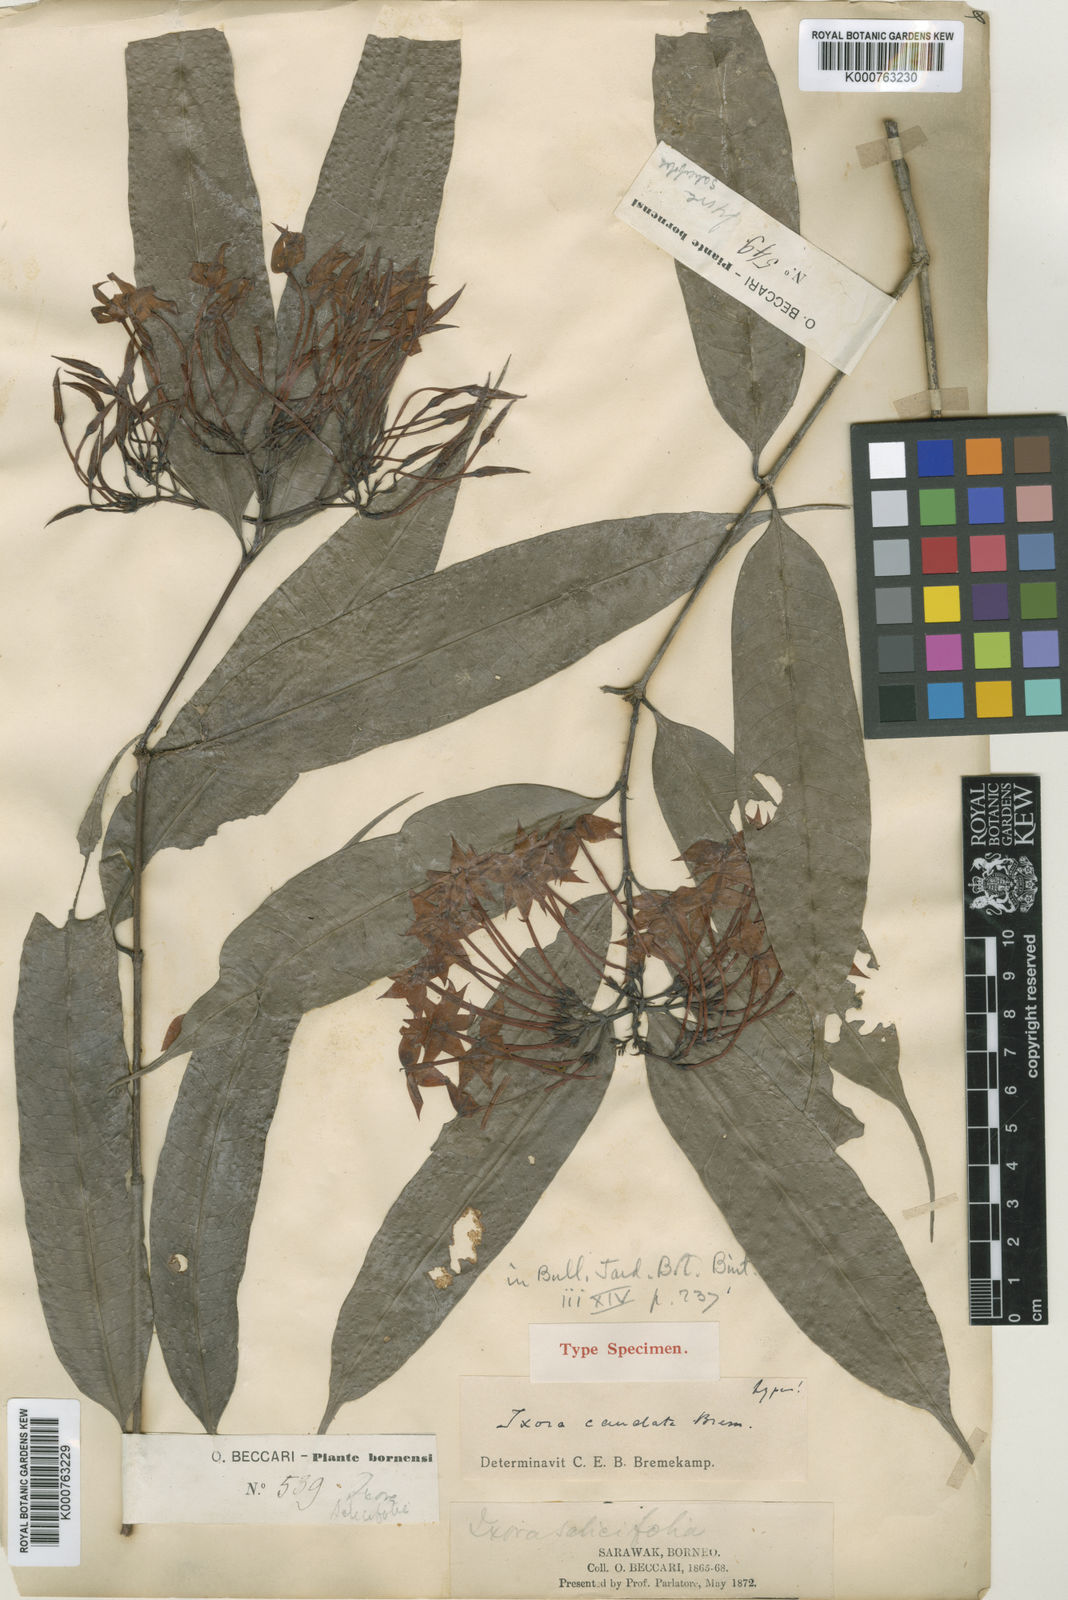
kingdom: Plantae
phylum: Tracheophyta
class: Magnoliopsida
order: Gentianales
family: Rubiaceae
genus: Ixora
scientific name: Ixora caudata
